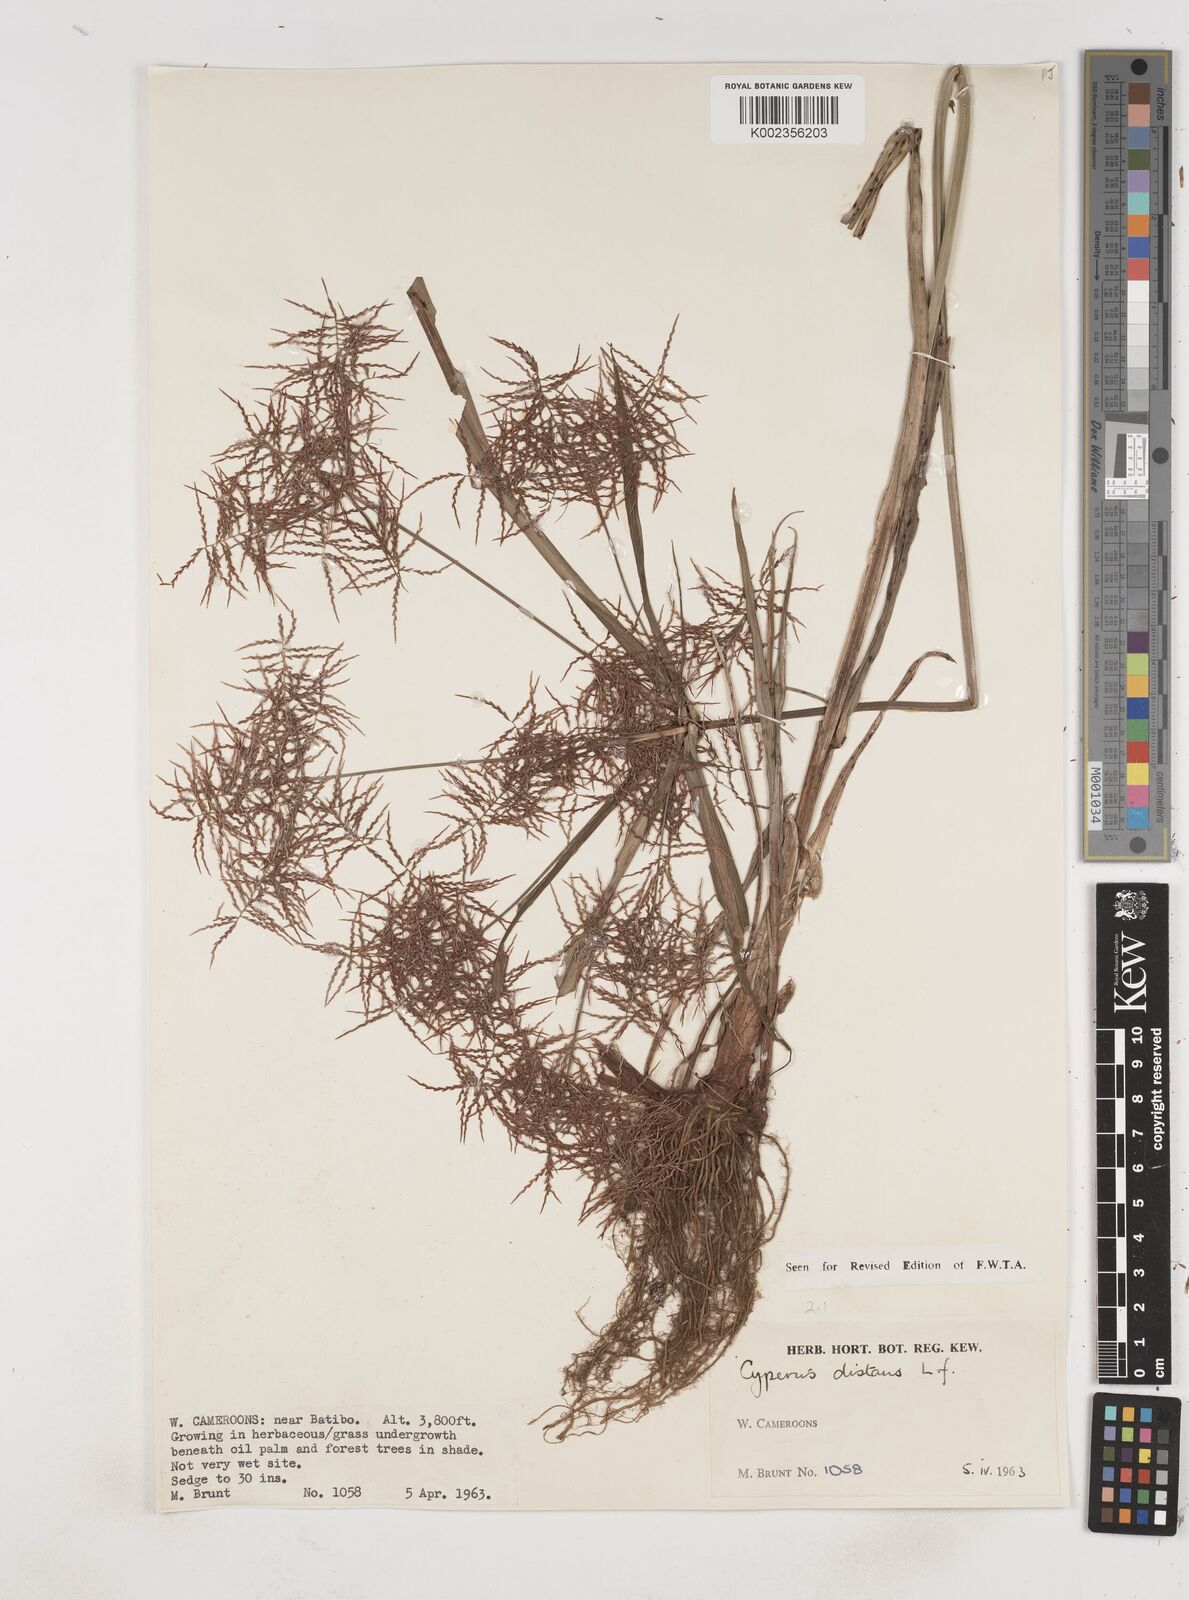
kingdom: Plantae
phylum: Tracheophyta
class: Liliopsida
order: Poales
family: Cyperaceae
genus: Cyperus
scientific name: Cyperus distans
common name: Slender cyperus
